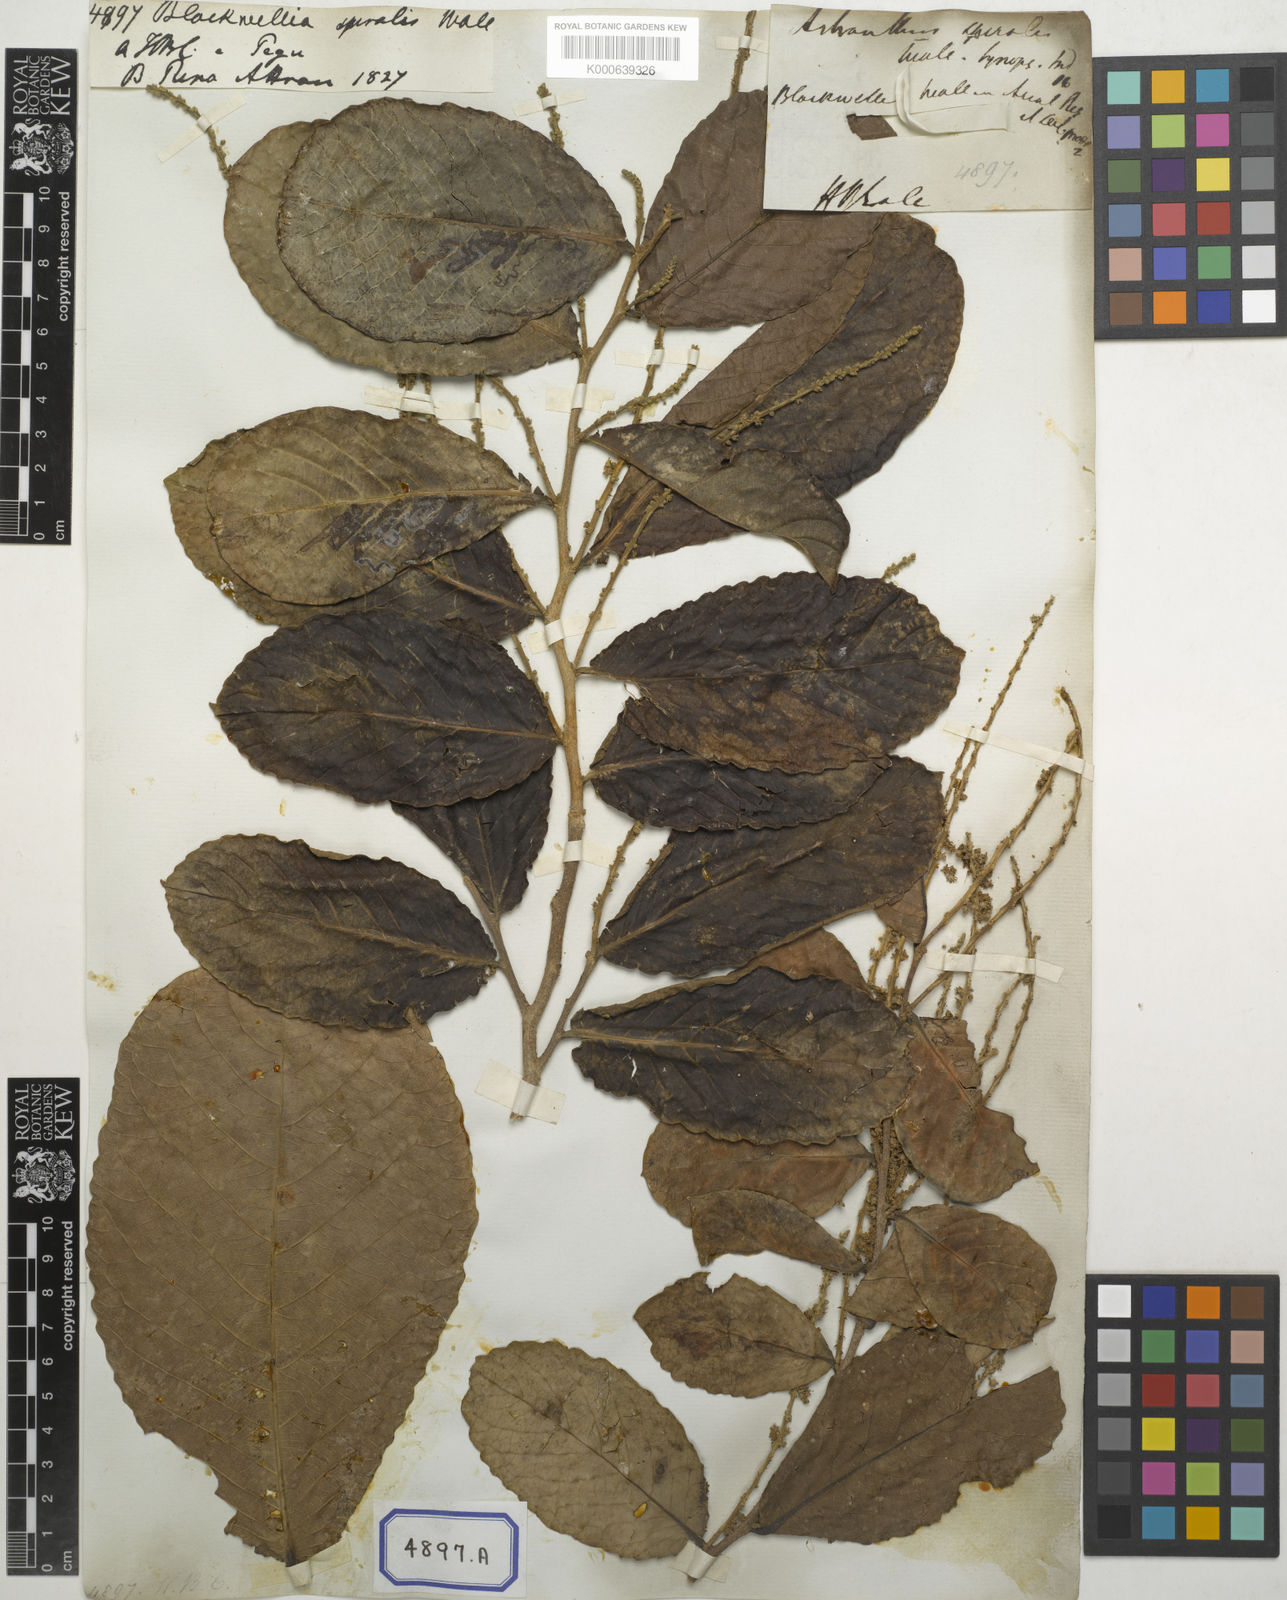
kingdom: Plantae
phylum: Tracheophyta
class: Magnoliopsida
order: Malpighiales
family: Salicaceae
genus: Homalium
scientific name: Homalium tomentosum
